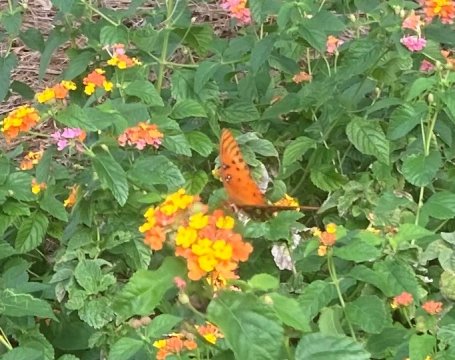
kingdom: Animalia
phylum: Arthropoda
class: Insecta
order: Lepidoptera
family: Nymphalidae
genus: Dione
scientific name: Dione vanillae
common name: Gulf Fritillary
